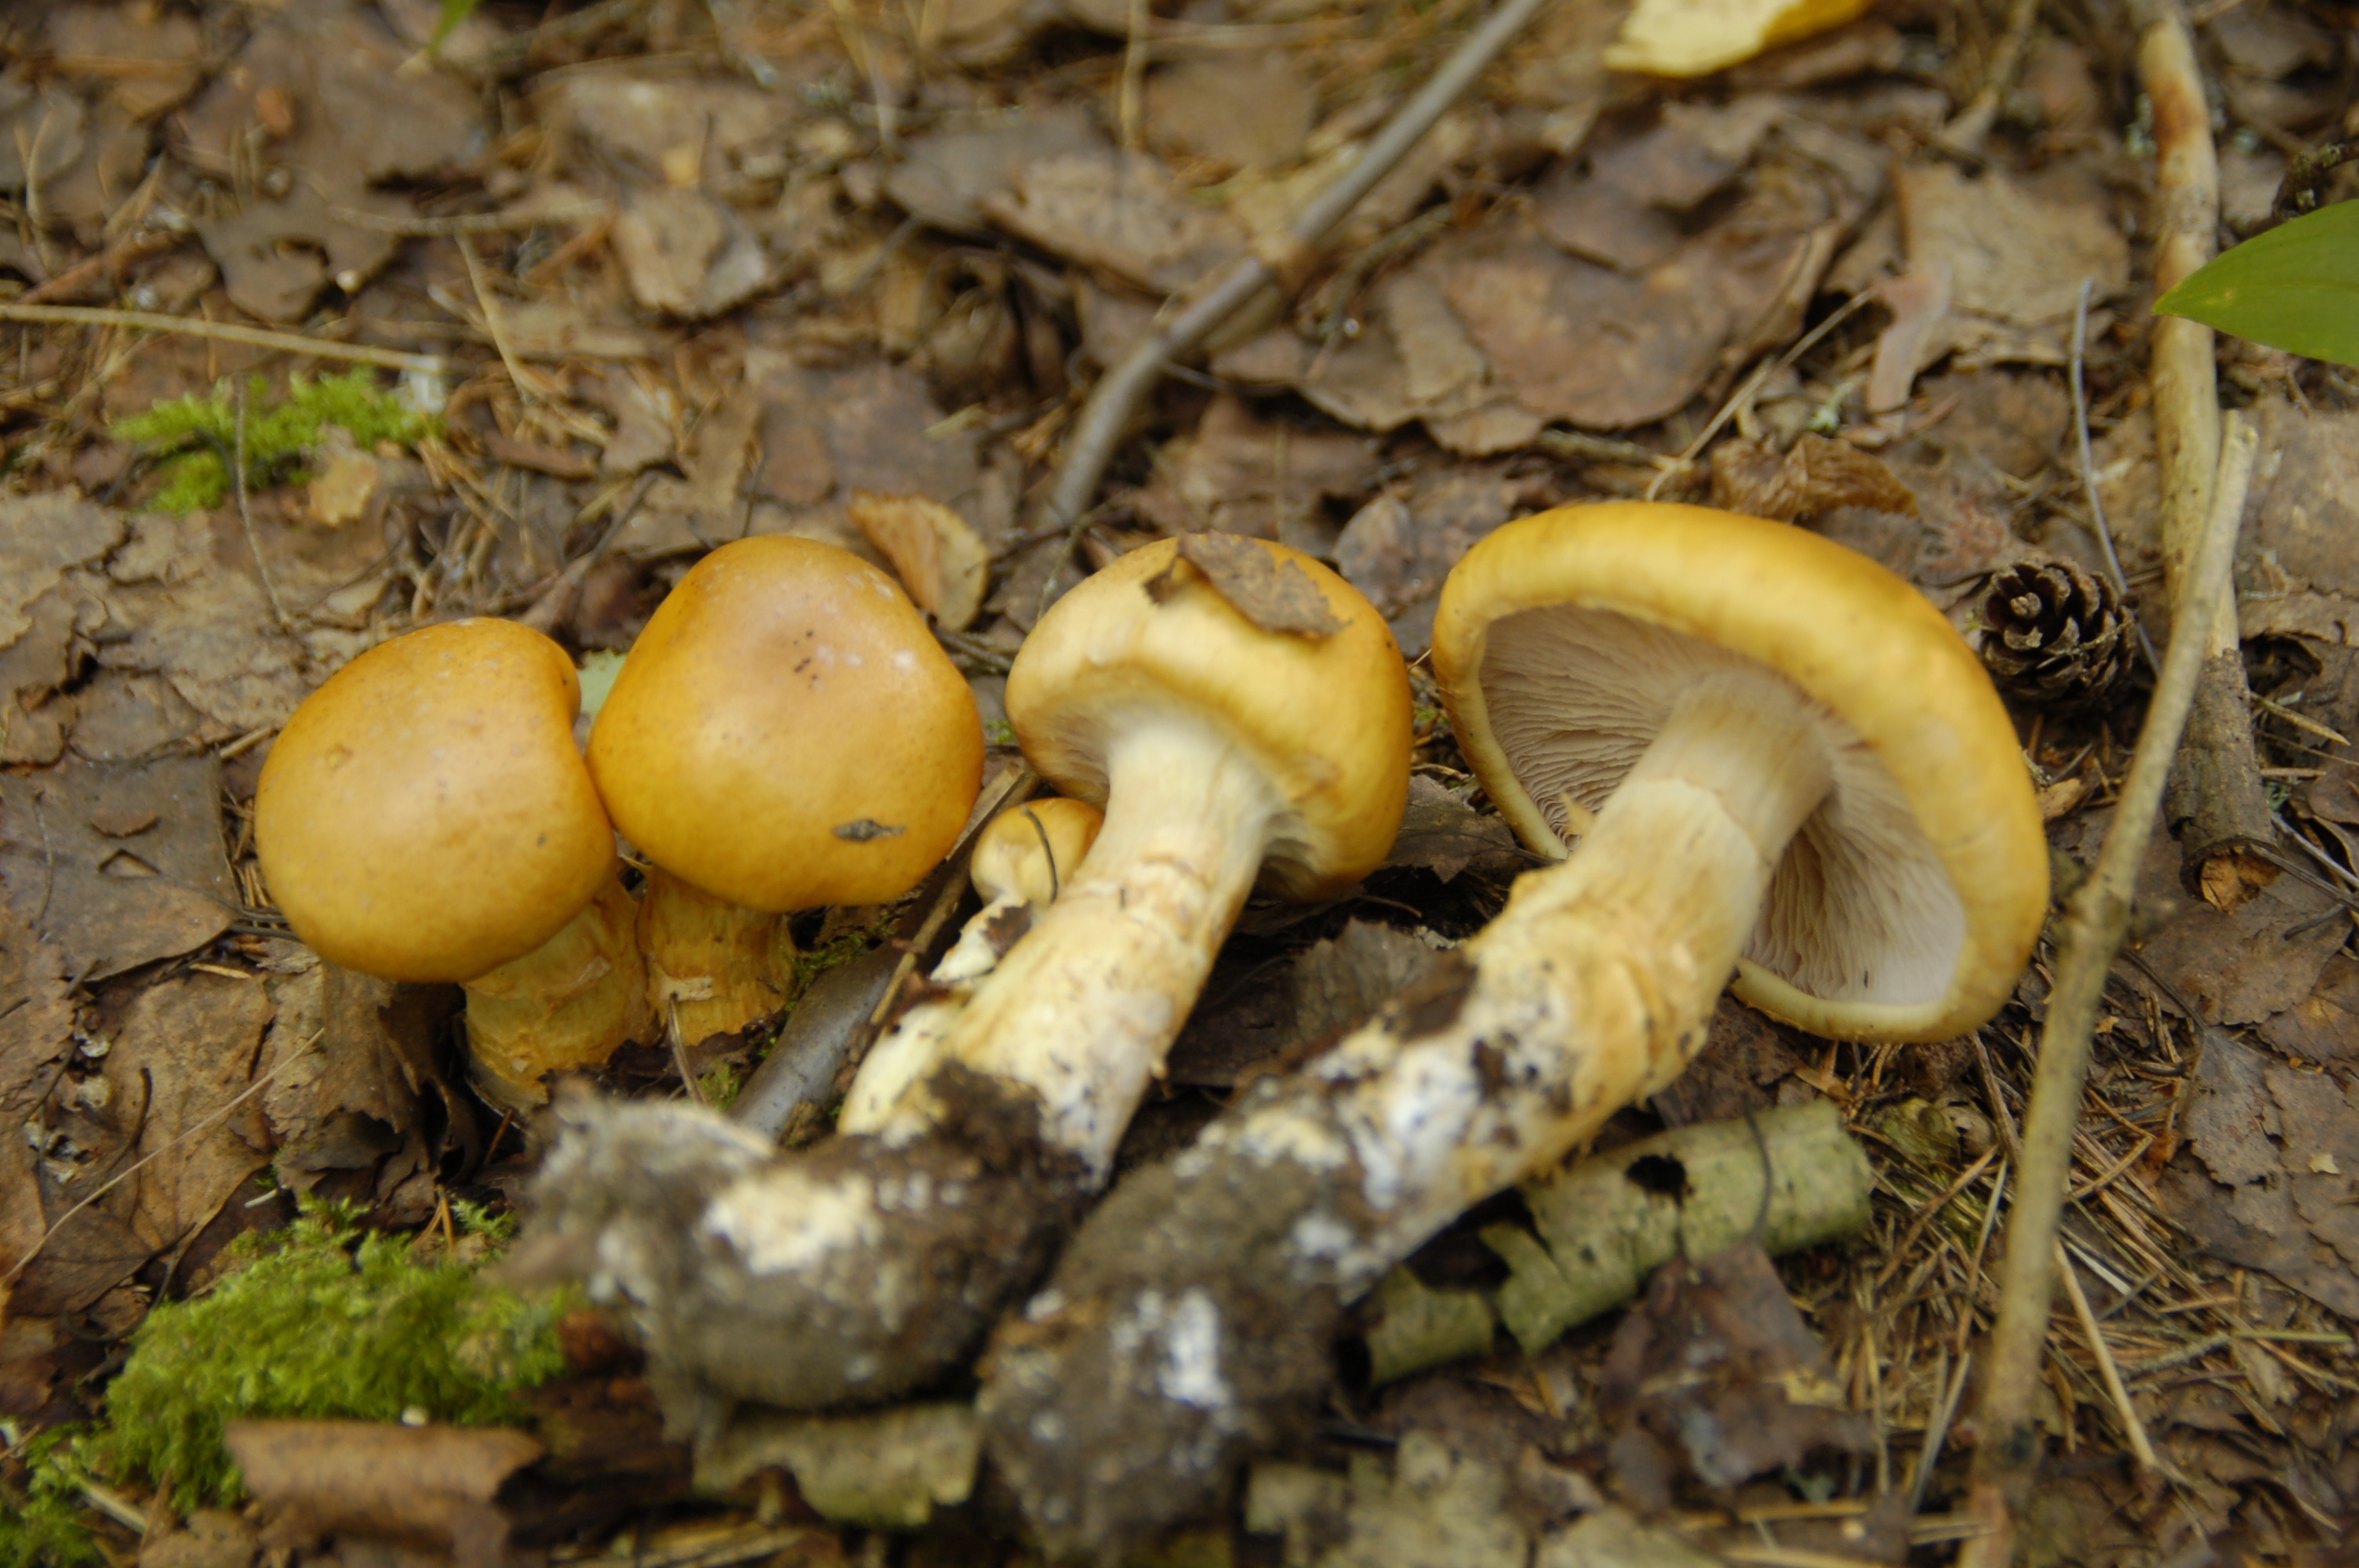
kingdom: Fungi
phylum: Basidiomycota
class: Agaricomycetes
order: Agaricales
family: Cortinariaceae
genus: Phlegmacium
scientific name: Phlegmacium triumphans
